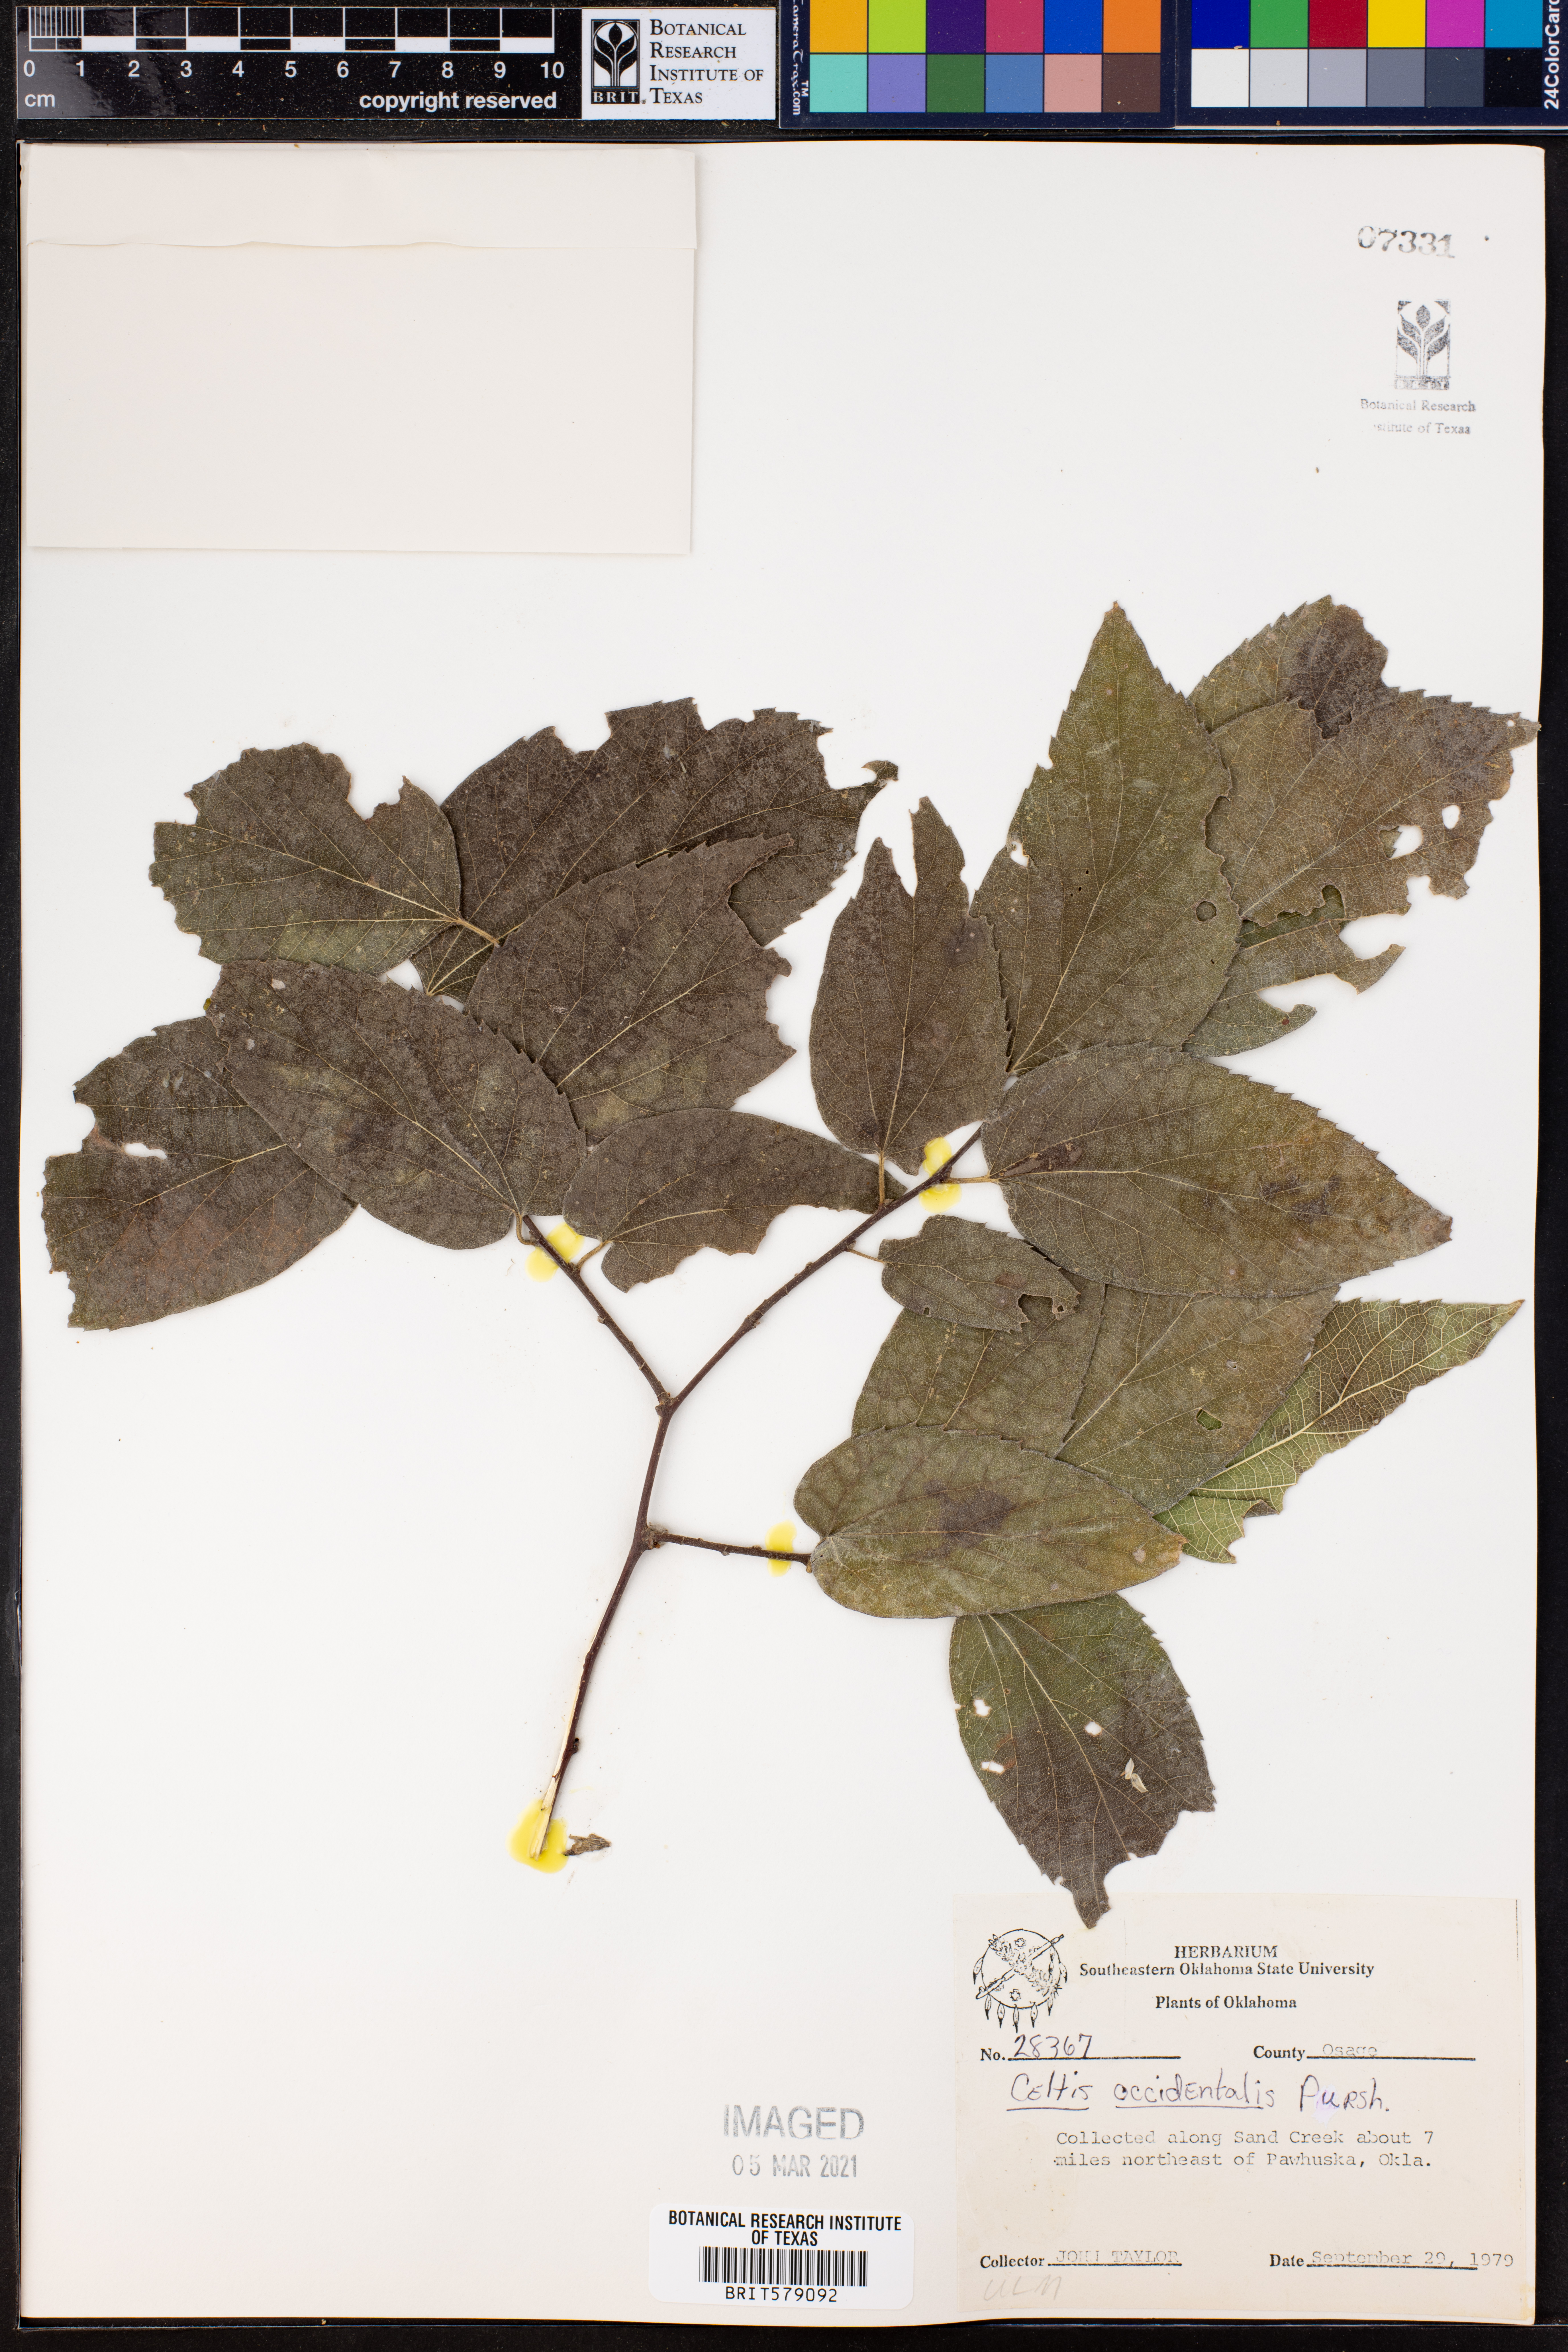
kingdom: Plantae
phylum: Tracheophyta
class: Magnoliopsida
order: Rosales
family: Cannabaceae
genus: Celtis
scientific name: Celtis occidentalis
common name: Common hackberry
